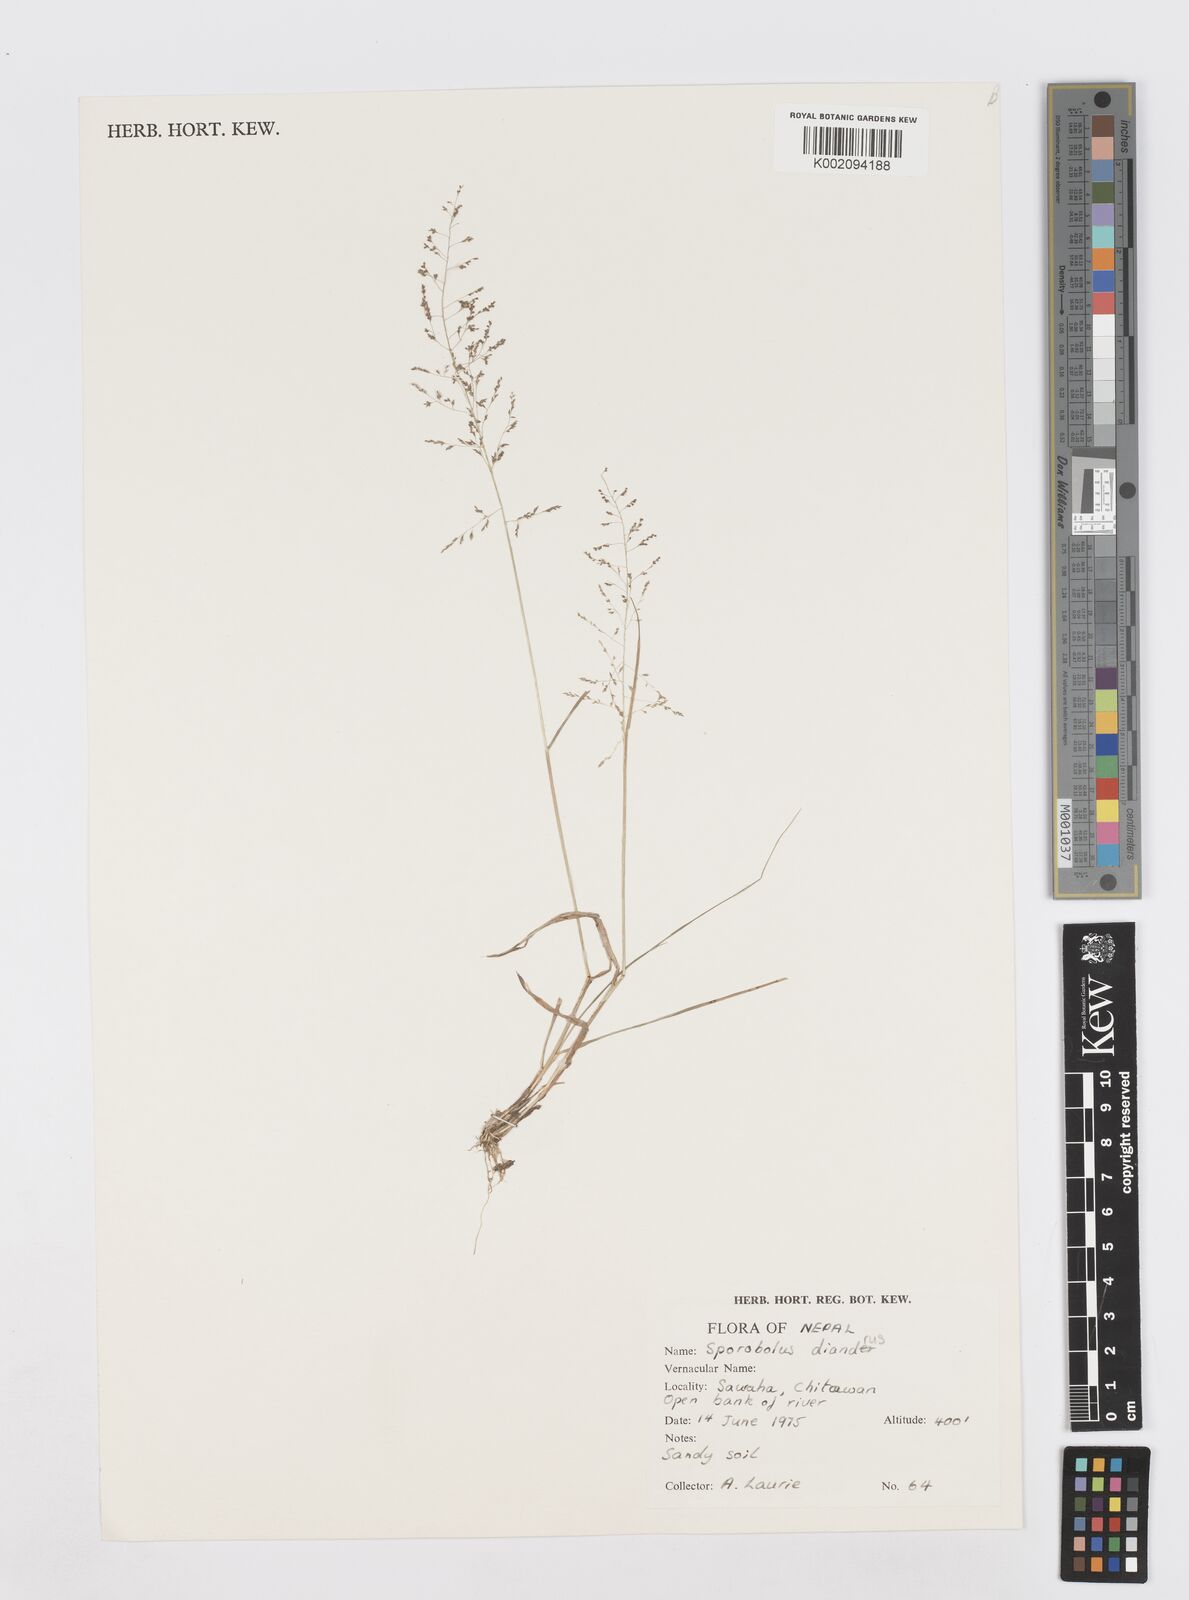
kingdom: Plantae
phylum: Tracheophyta
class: Liliopsida
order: Poales
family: Poaceae
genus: Sporobolus
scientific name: Sporobolus diandrus
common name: Tussock dropseed
